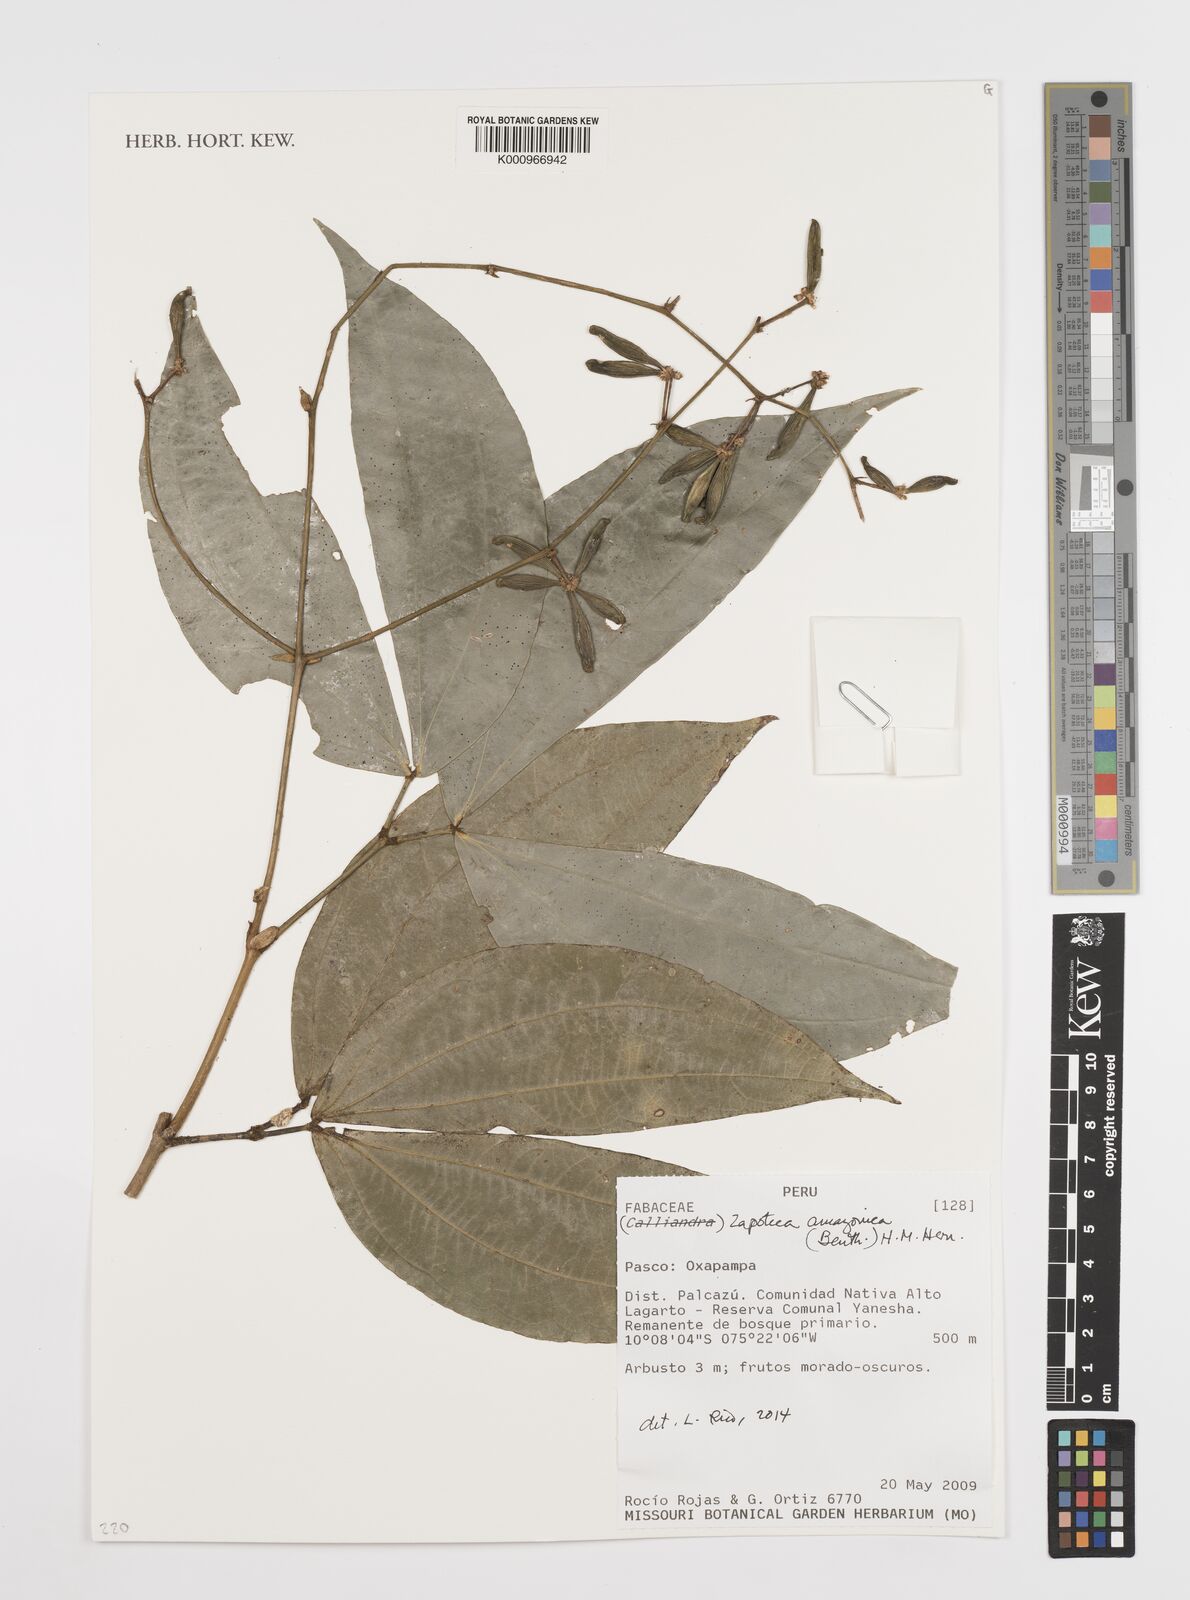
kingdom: Plantae
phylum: Tracheophyta
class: Magnoliopsida
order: Fabales
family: Fabaceae
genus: Zapoteca
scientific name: Zapoteca amazonica
